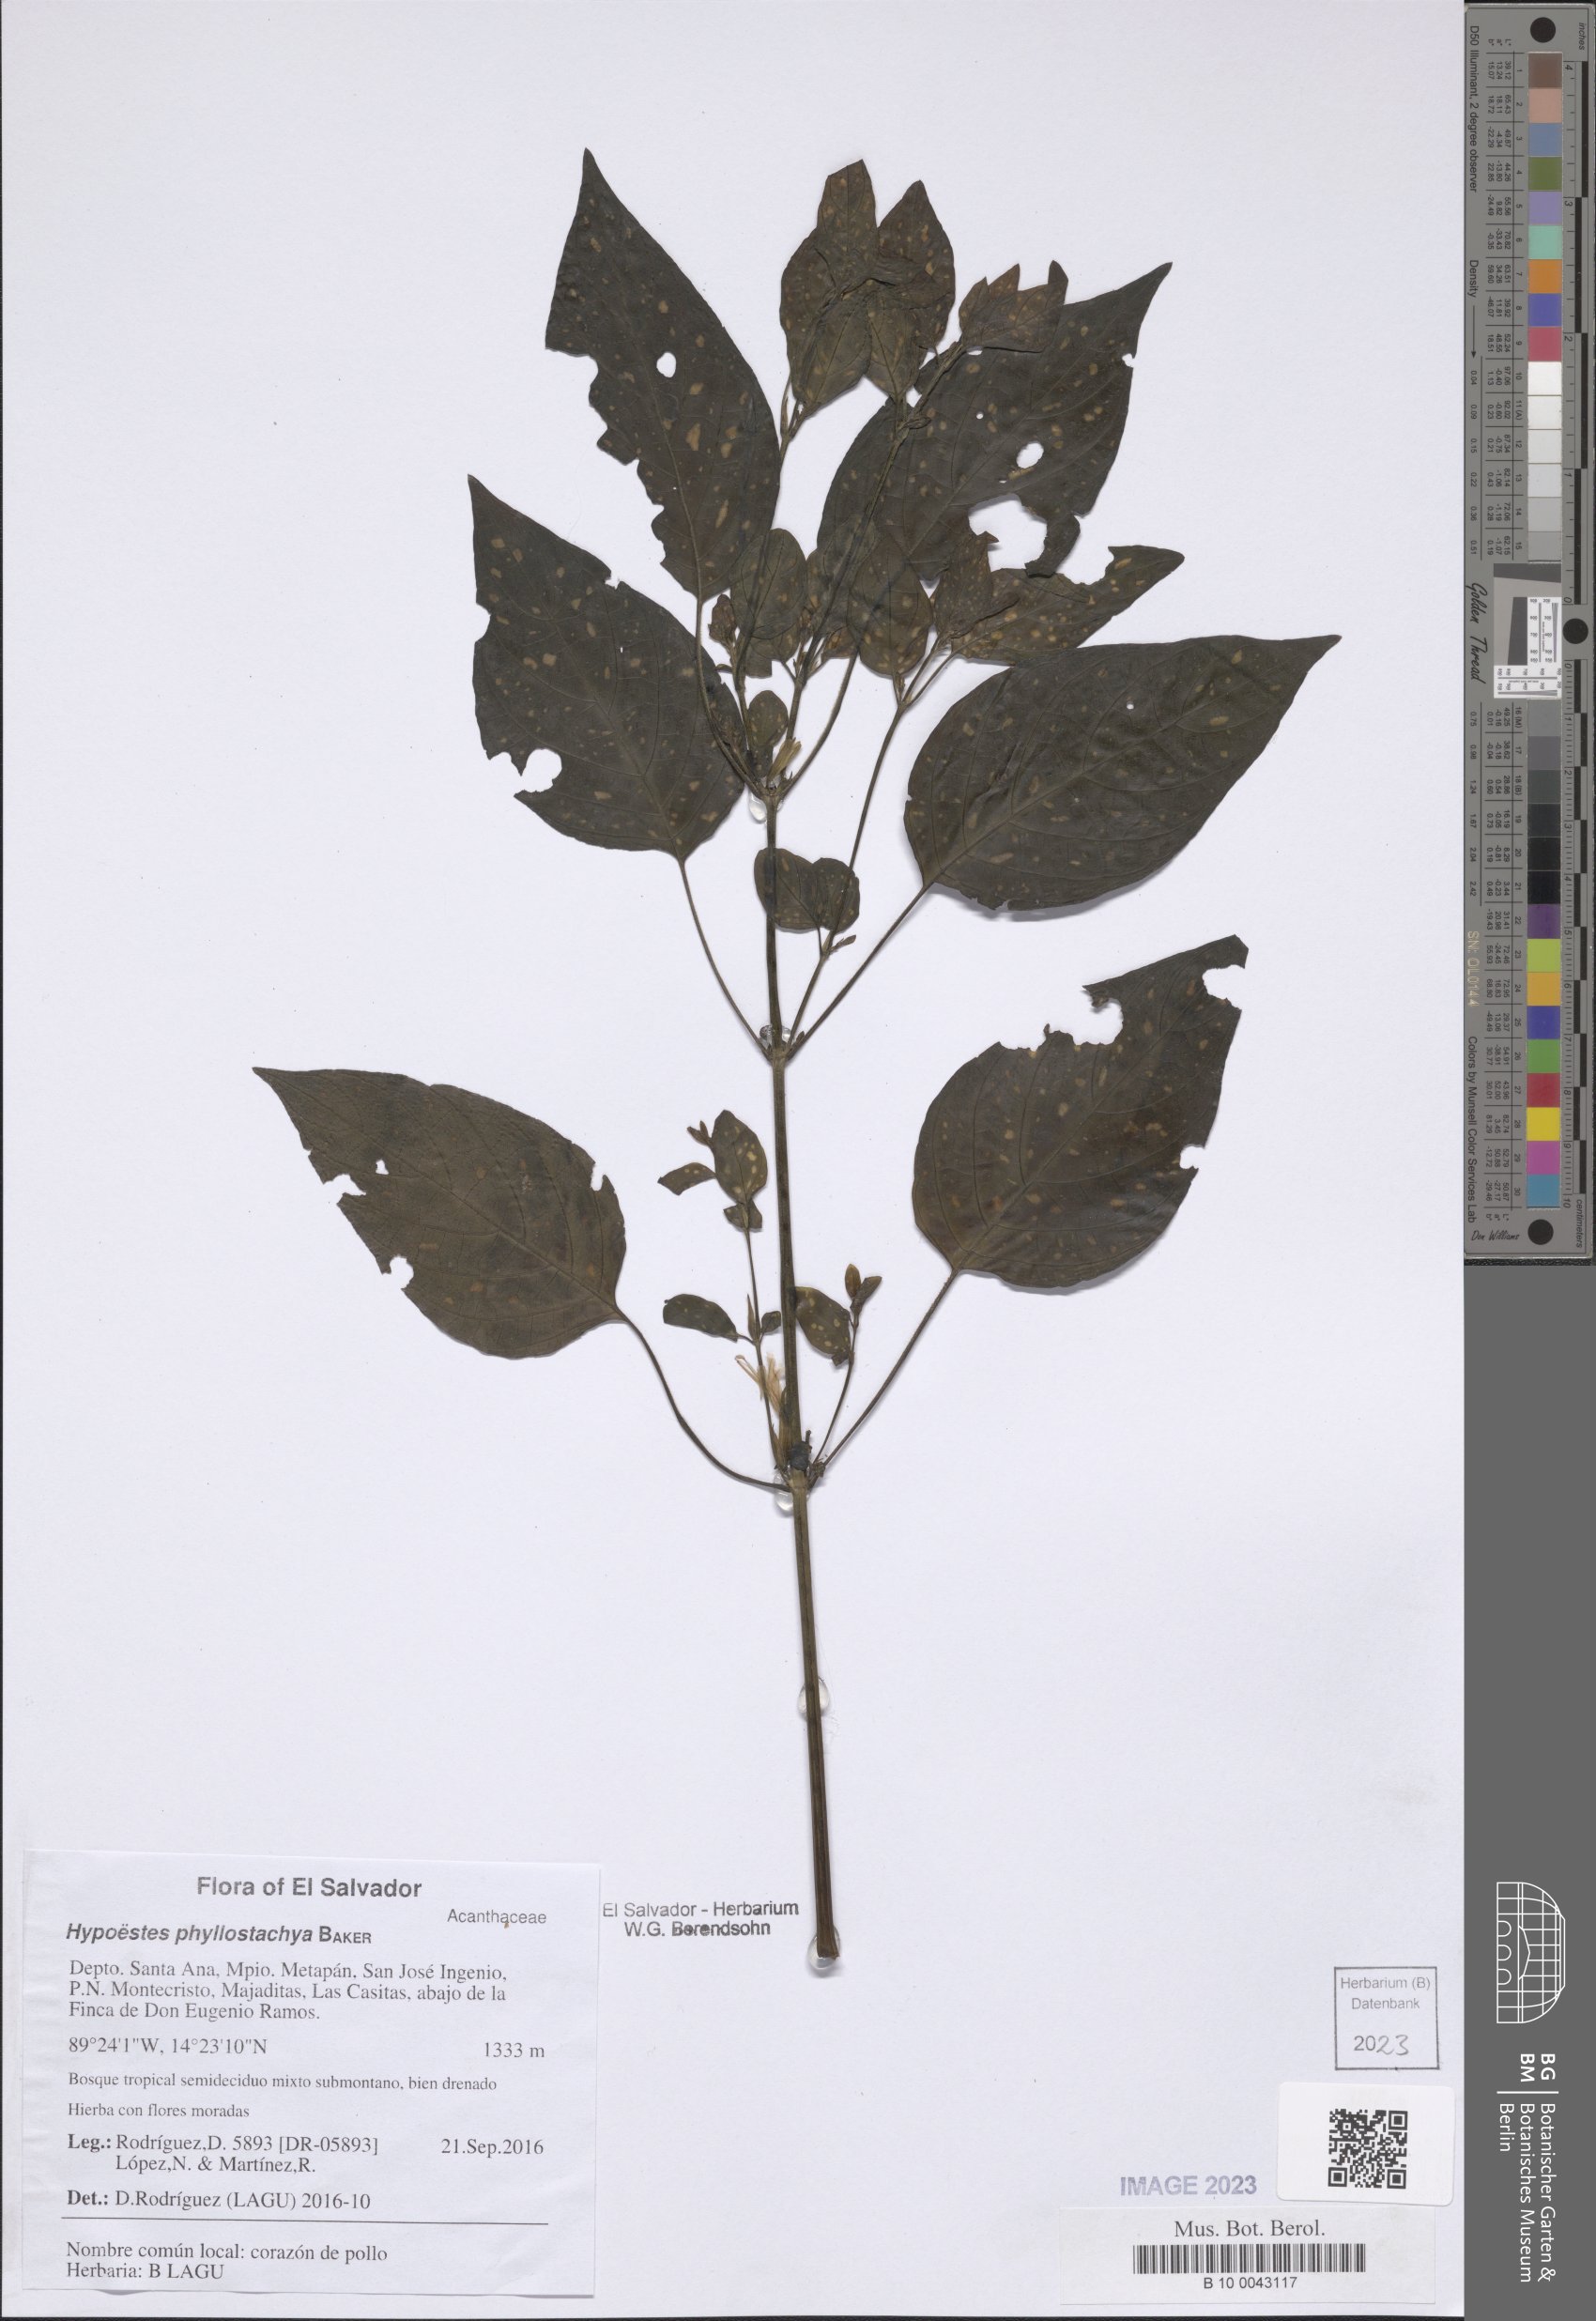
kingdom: Plantae
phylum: Tracheophyta
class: Magnoliopsida
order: Lamiales
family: Acanthaceae
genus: Hypoestes
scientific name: Hypoestes phyllostachya
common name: Polkadot-plant
